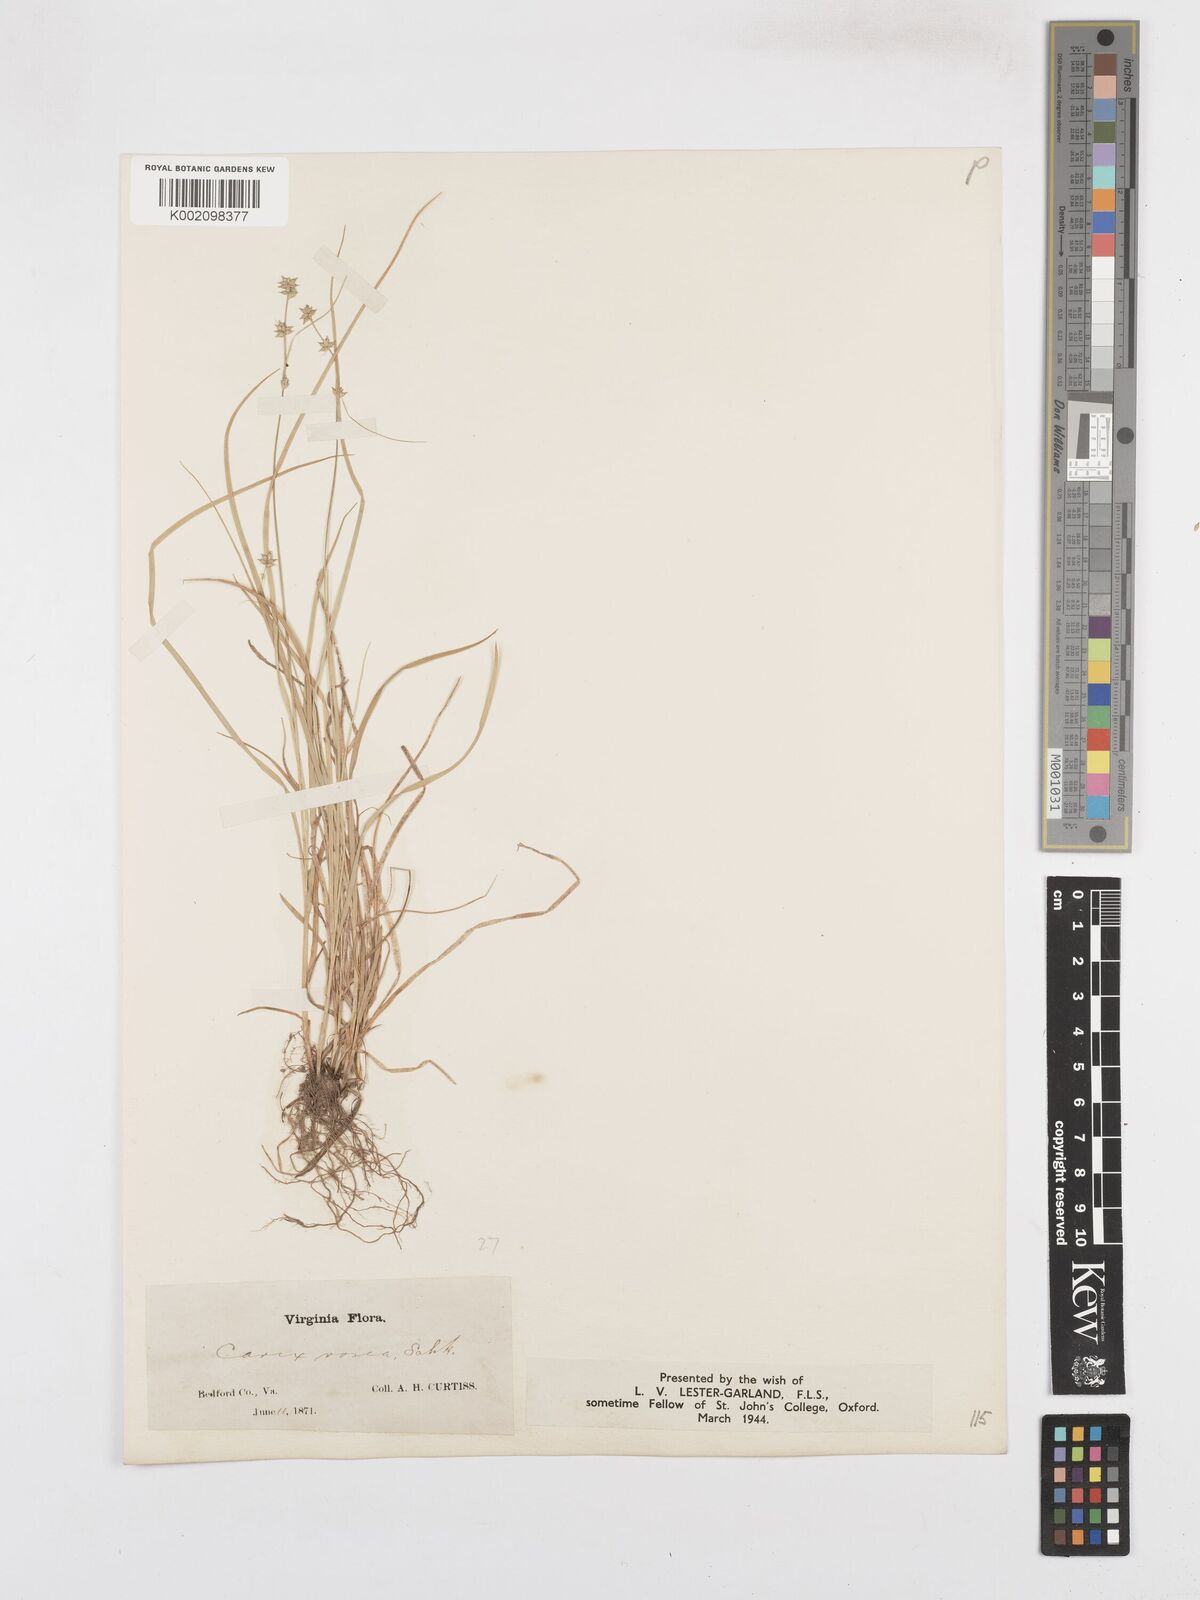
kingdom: Plantae
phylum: Tracheophyta
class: Liliopsida
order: Poales
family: Cyperaceae
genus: Carex
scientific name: Carex rosea
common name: Curly-styled wood sedge
